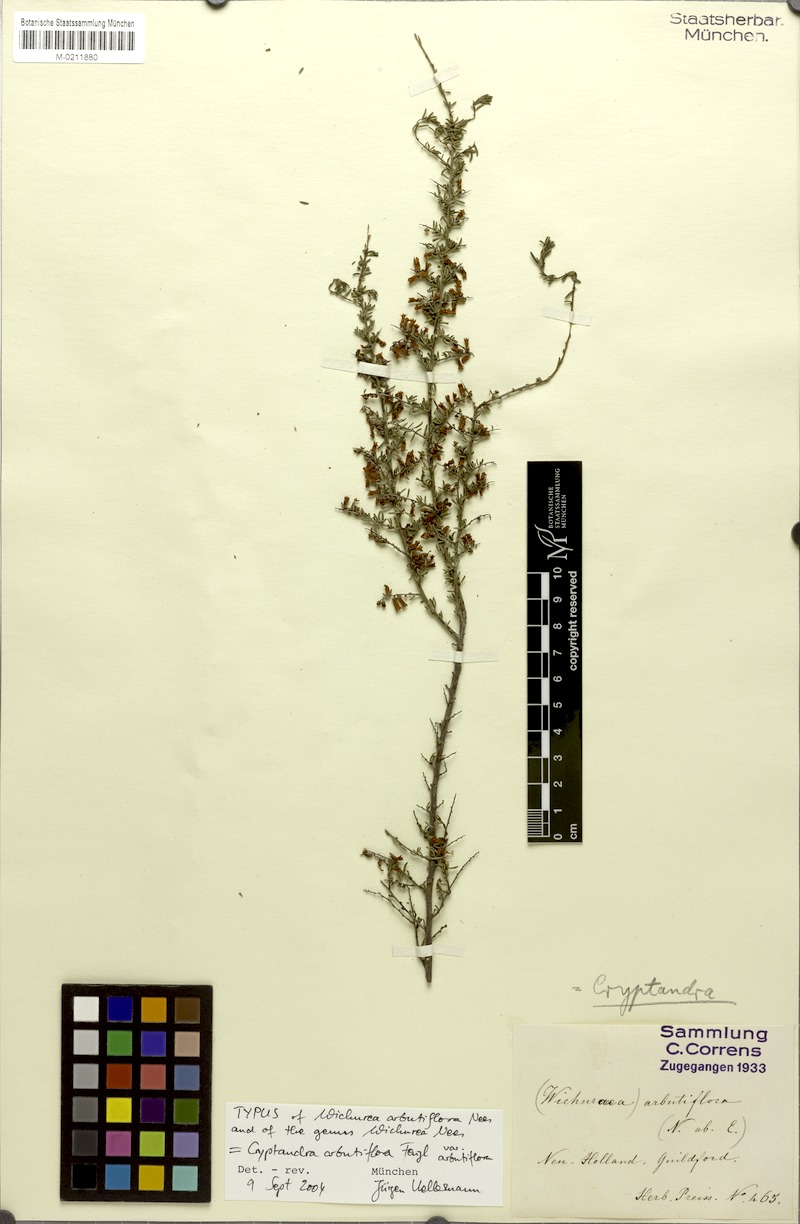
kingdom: Plantae
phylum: Tracheophyta
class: Magnoliopsida
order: Rosales
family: Rhamnaceae
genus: Cryptandra
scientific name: Cryptandra arbutiflora
